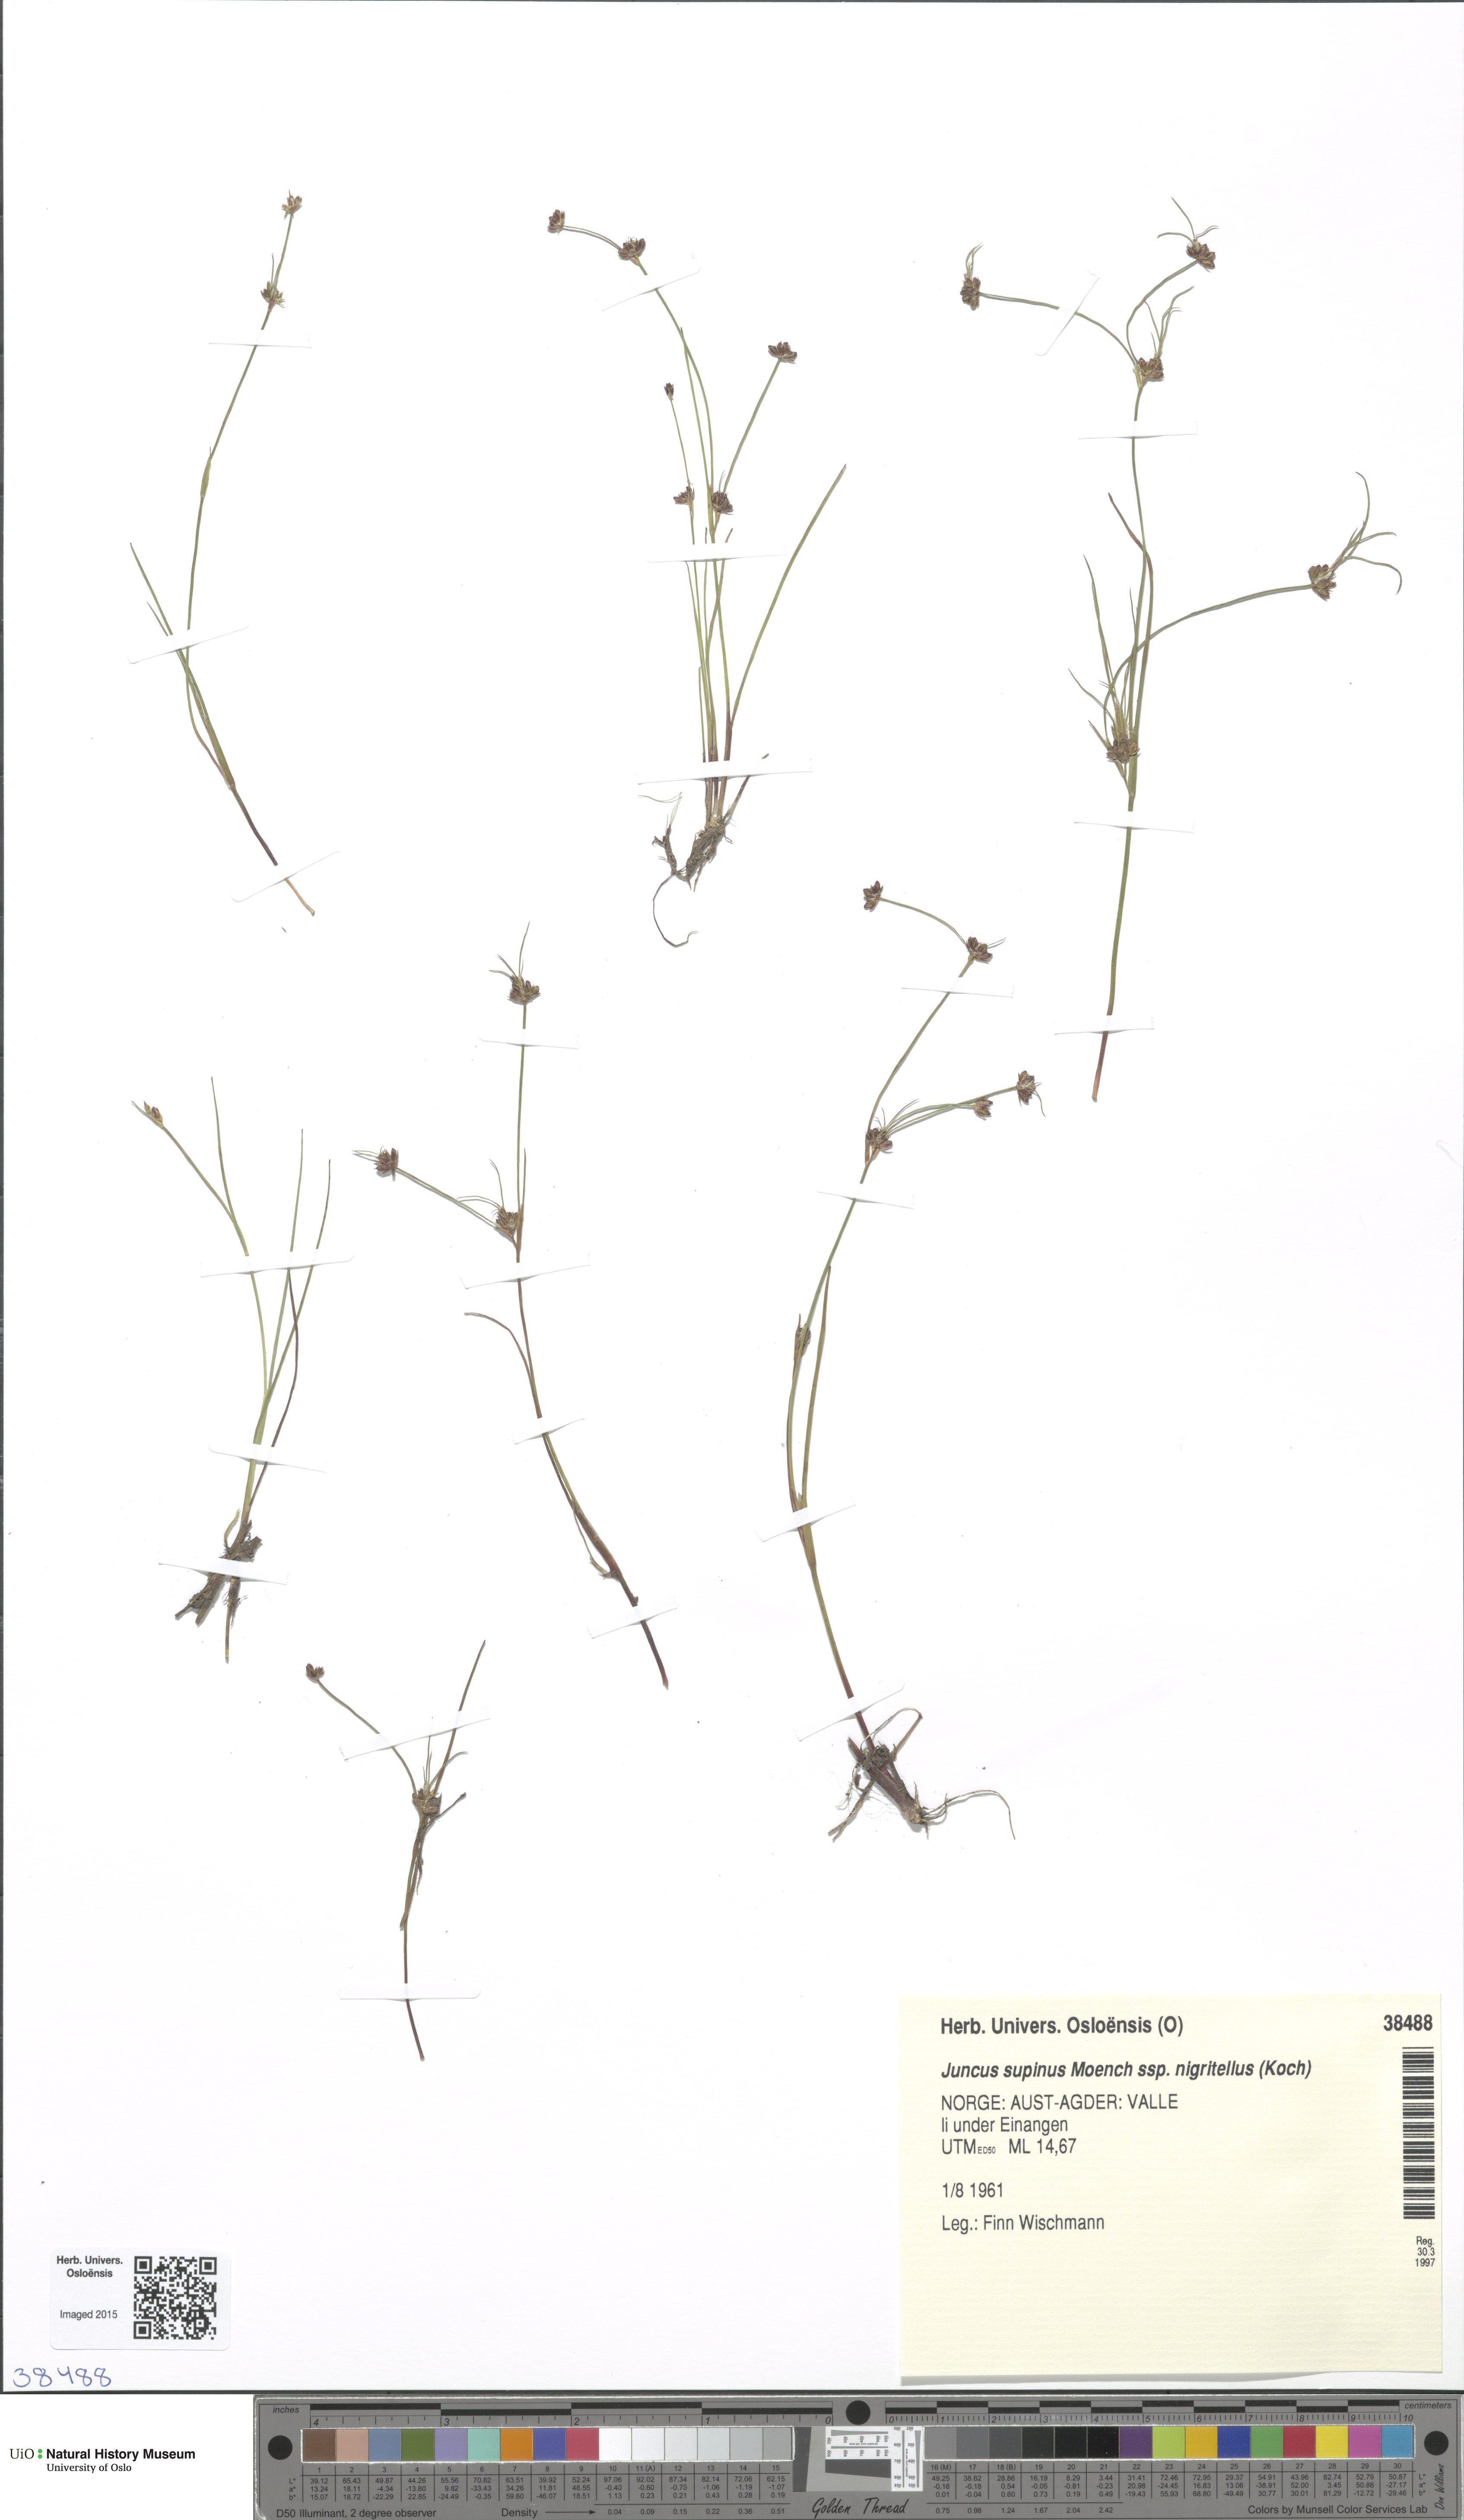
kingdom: Plantae
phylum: Tracheophyta
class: Liliopsida
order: Poales
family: Juncaceae
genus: Juncus
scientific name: Juncus bulbosus
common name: Bulbous rush
